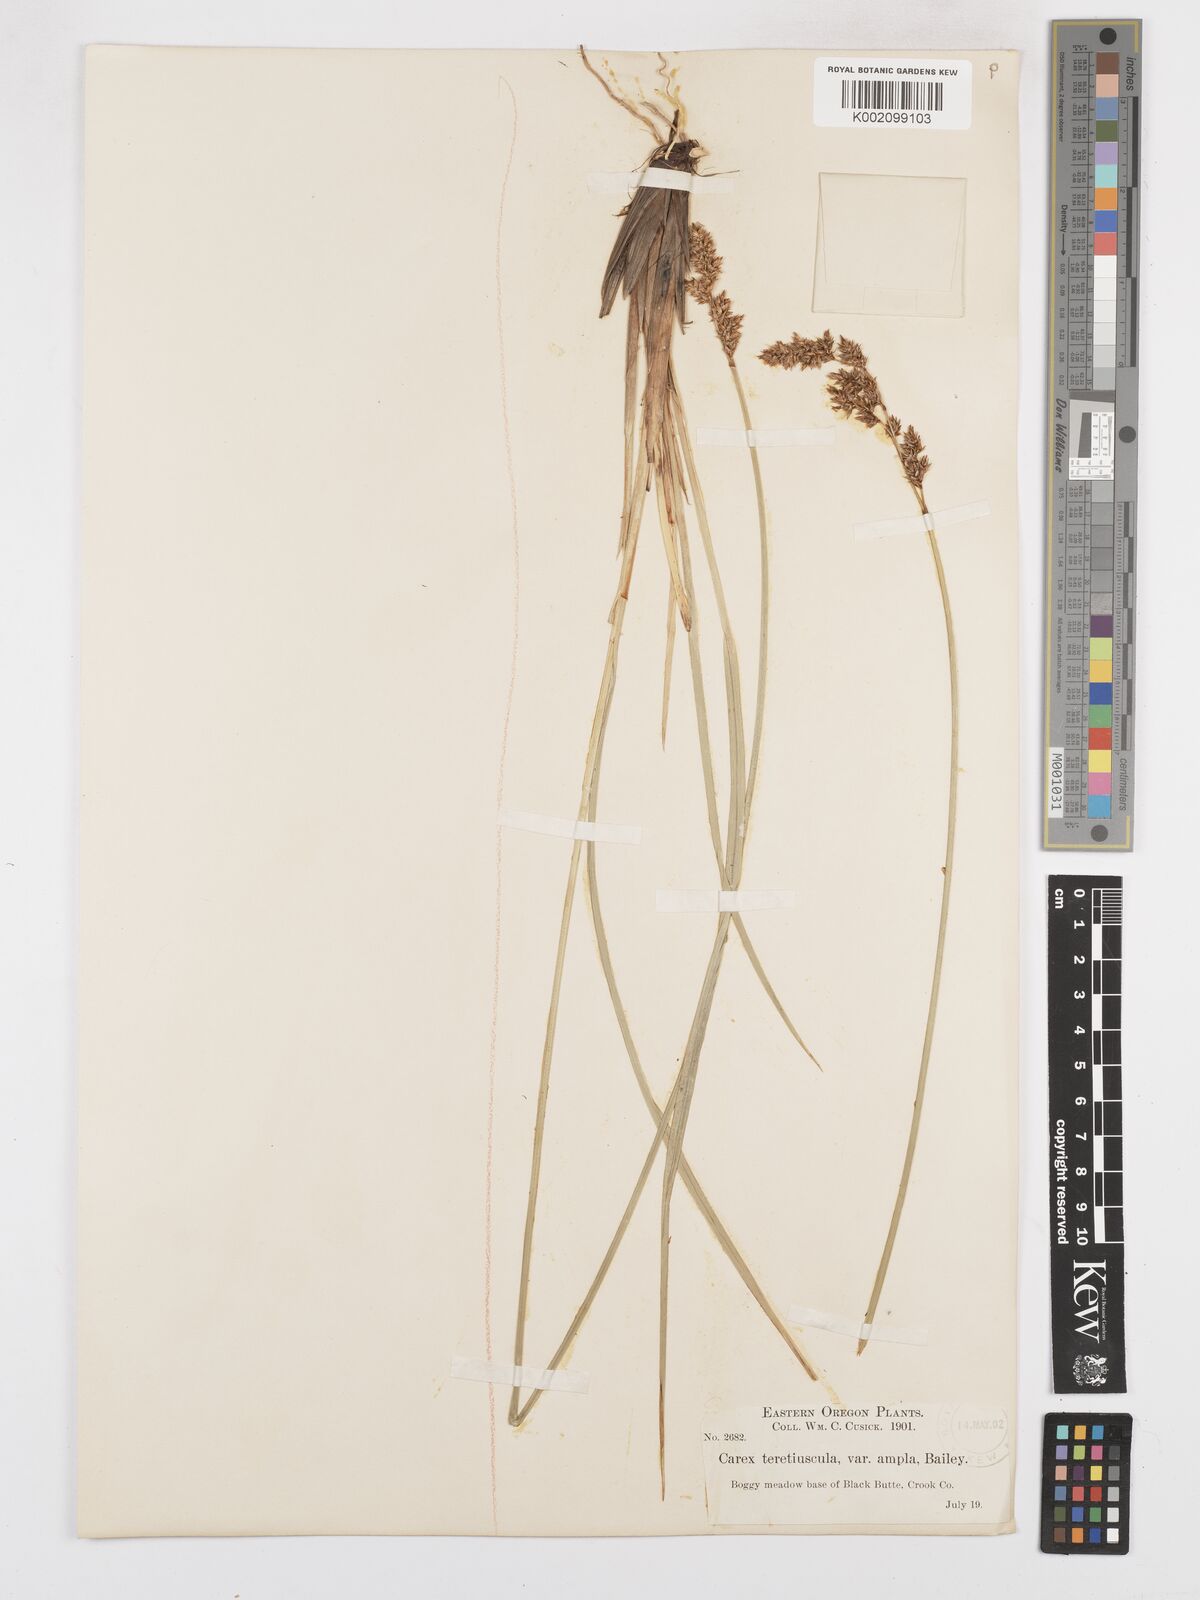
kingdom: Plantae
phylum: Tracheophyta
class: Liliopsida
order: Poales
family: Cyperaceae
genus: Carex
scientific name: Carex cusickii
